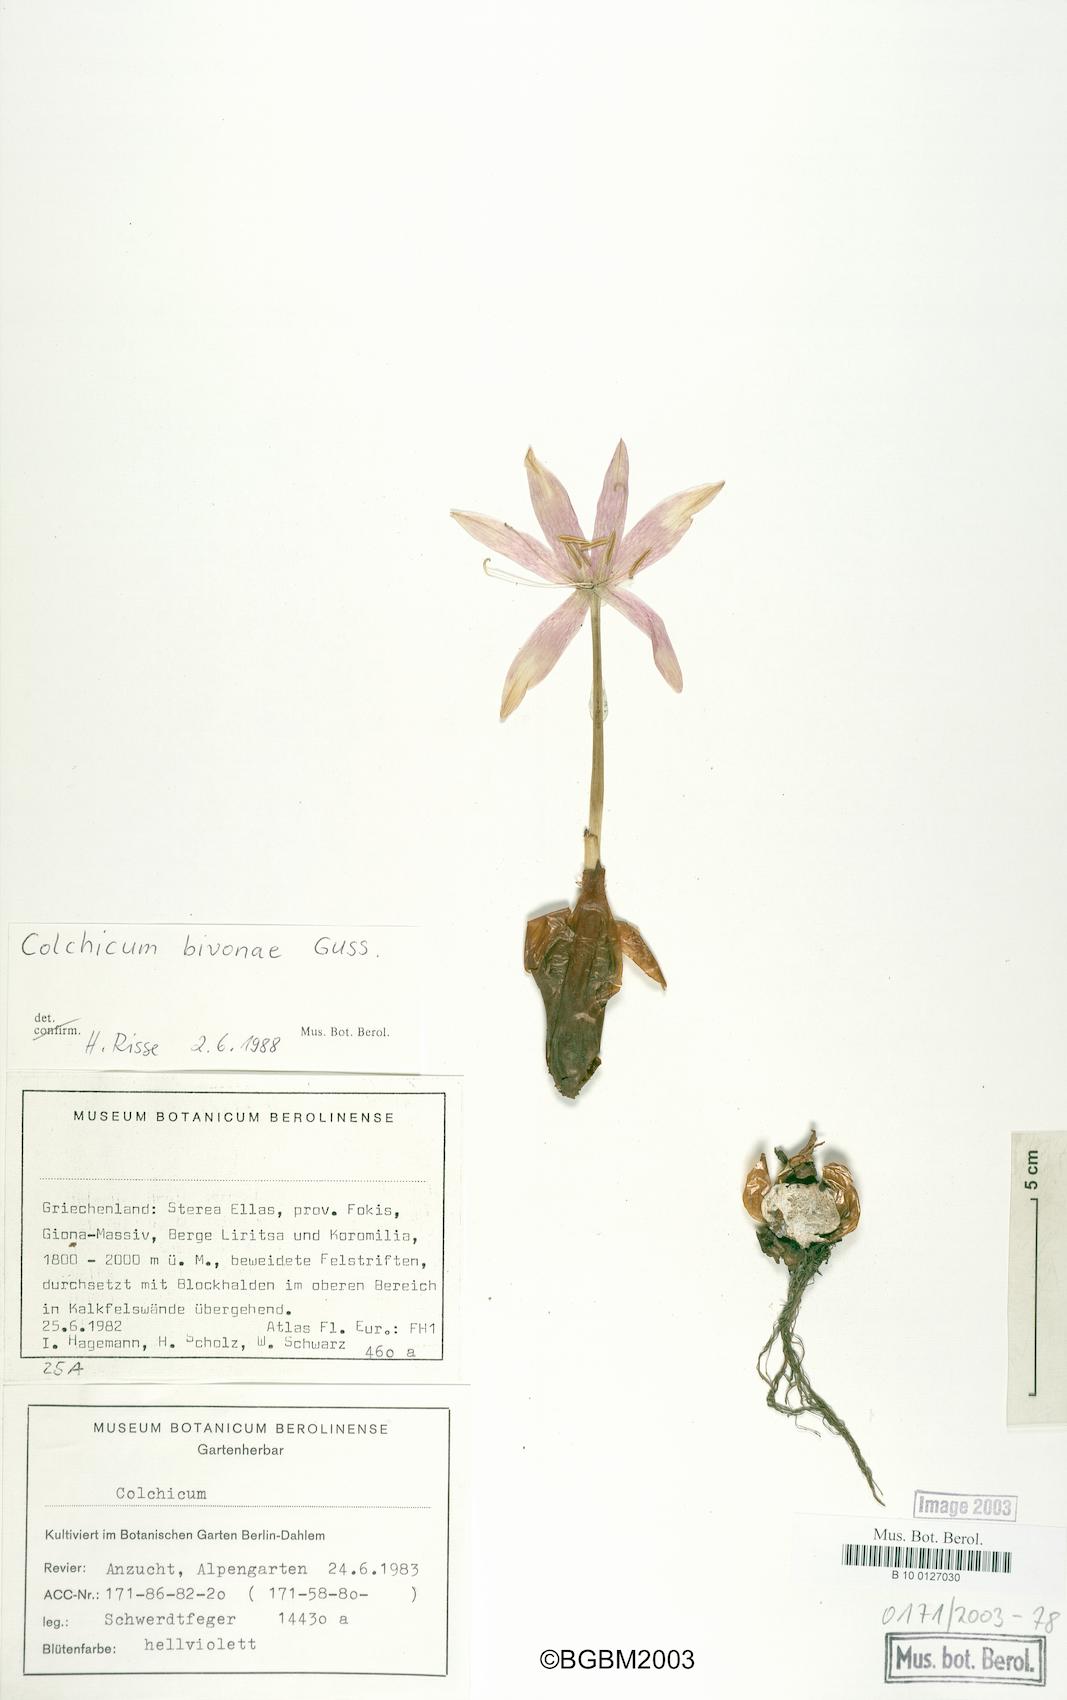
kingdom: Plantae
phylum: Tracheophyta
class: Liliopsida
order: Liliales
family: Colchicaceae
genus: Colchicum
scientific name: Colchicum bivonae
